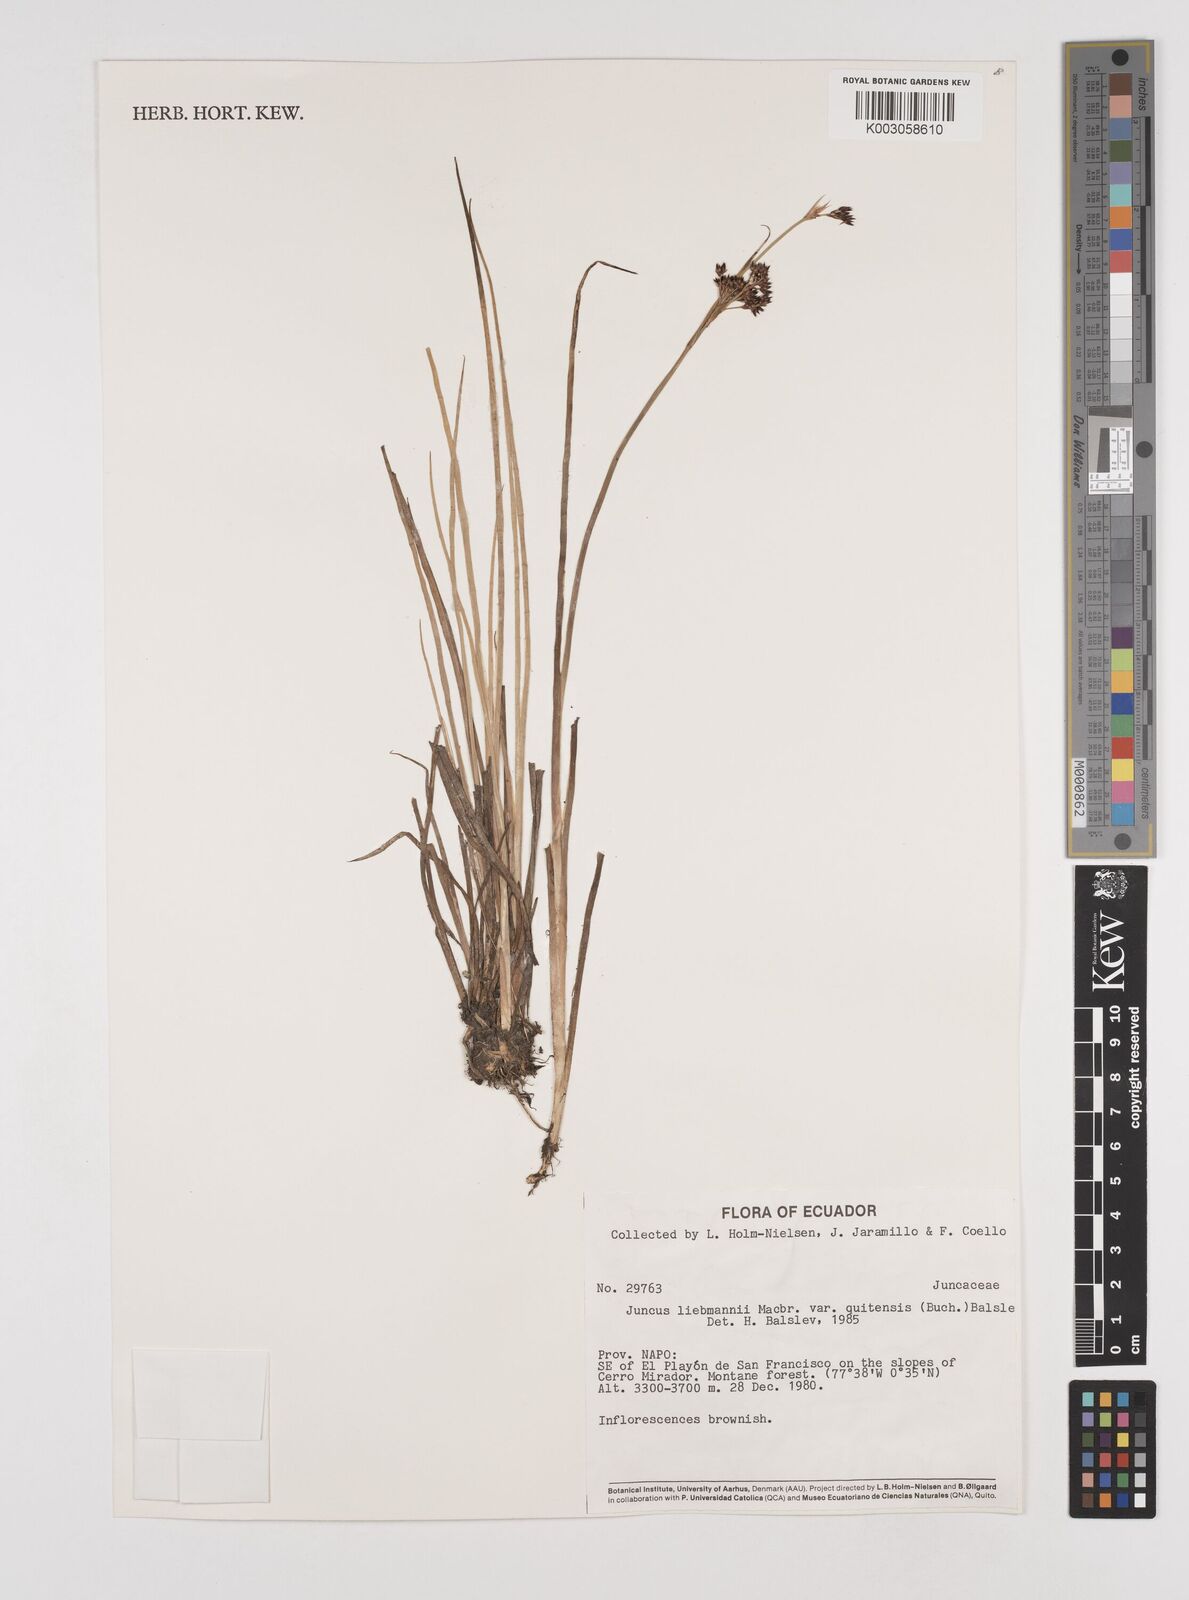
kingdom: Plantae
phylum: Tracheophyta
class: Liliopsida
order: Poales
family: Juncaceae
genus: Juncus
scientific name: Juncus liebmannii
